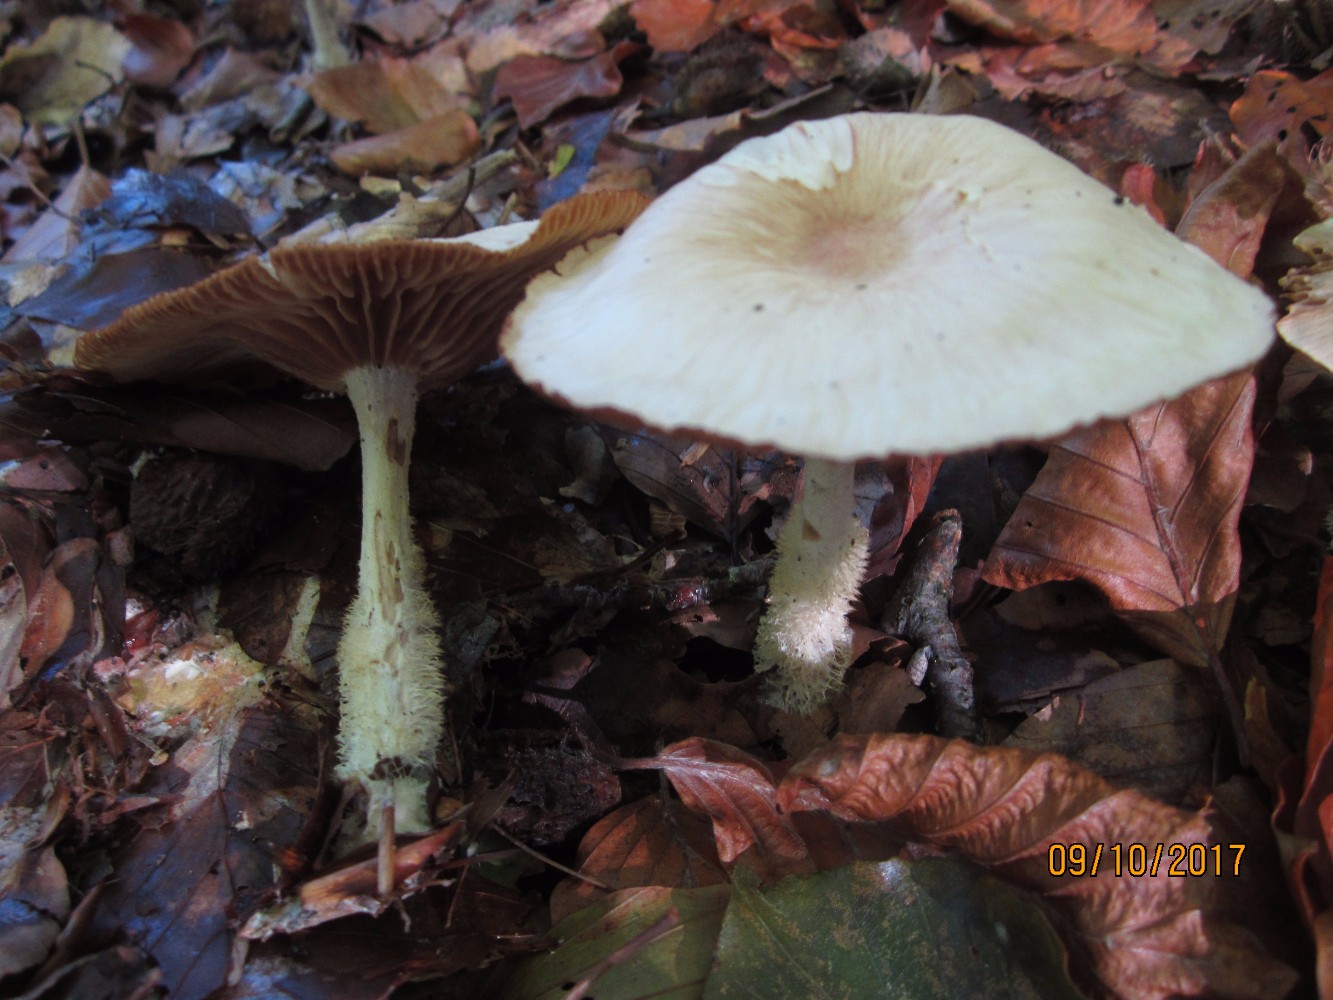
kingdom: Fungi
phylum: Basidiomycota
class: Agaricomycetes
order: Agaricales
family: Omphalotaceae
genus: Collybiopsis
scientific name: Collybiopsis peronata
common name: bestøvlet fladhat
